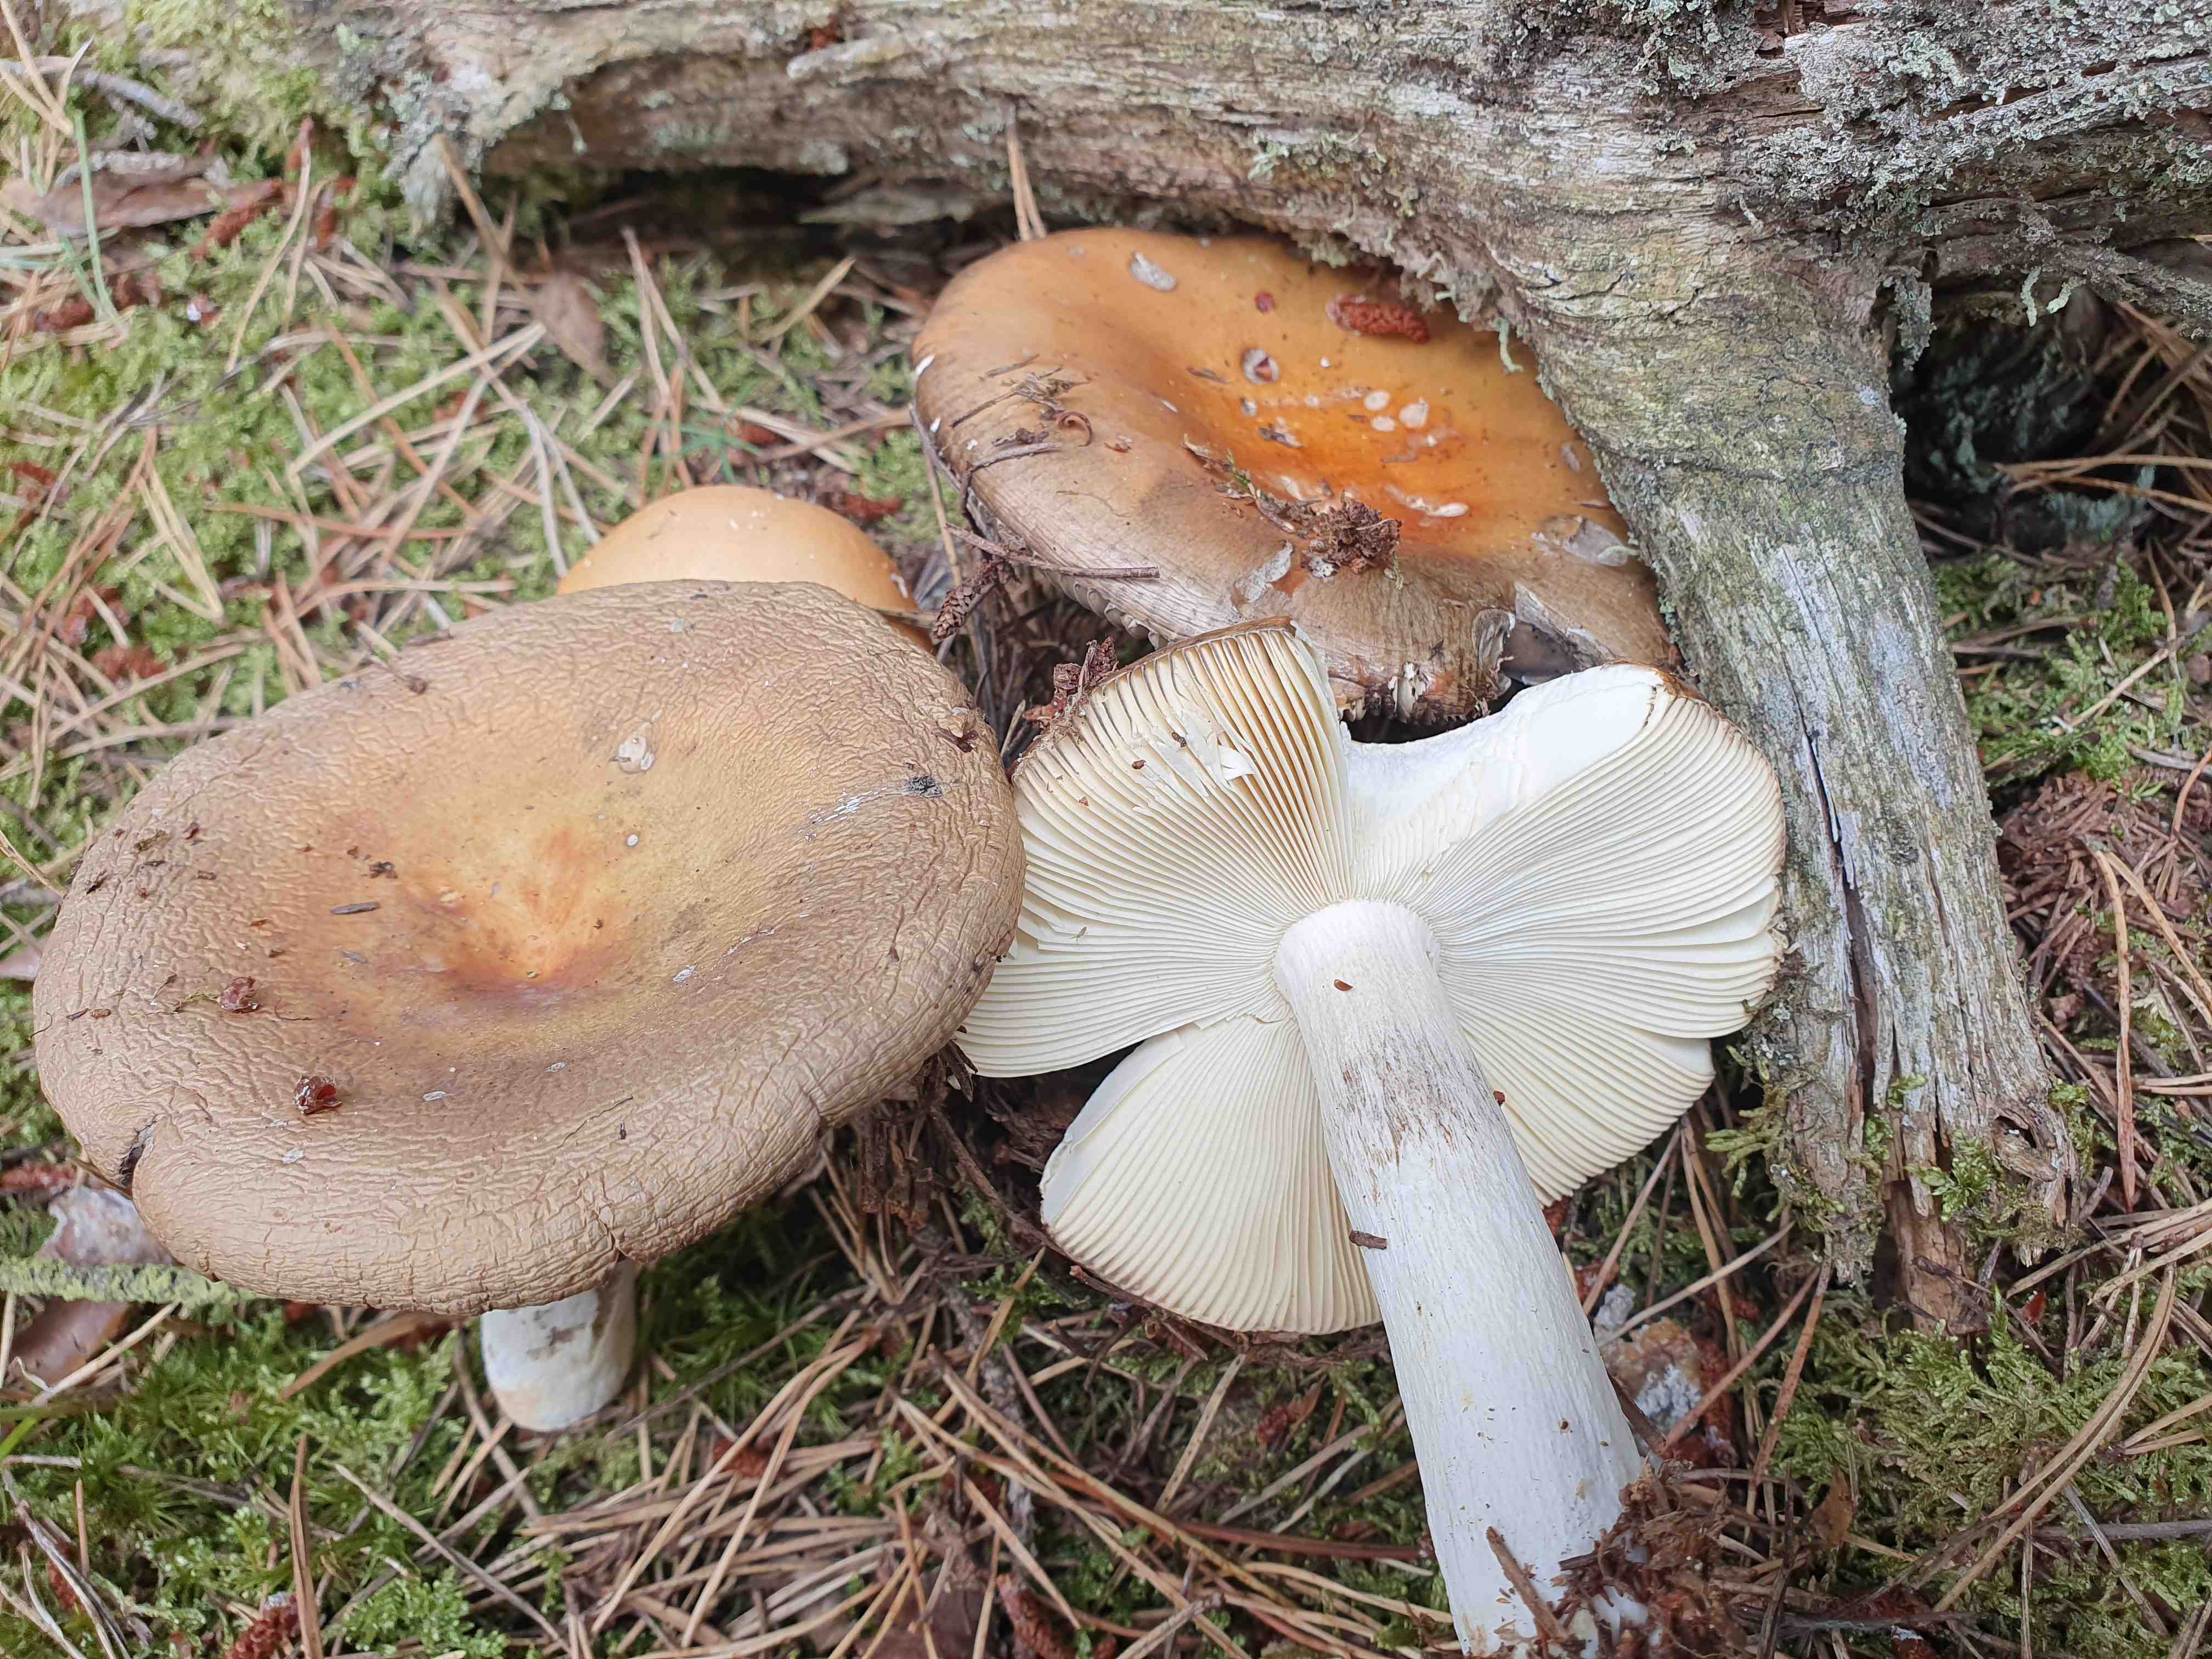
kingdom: Fungi
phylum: Basidiomycota
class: Agaricomycetes
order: Russulales
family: Russulaceae
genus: Russula
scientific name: Russula decolorans
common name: afblegende skørhat
